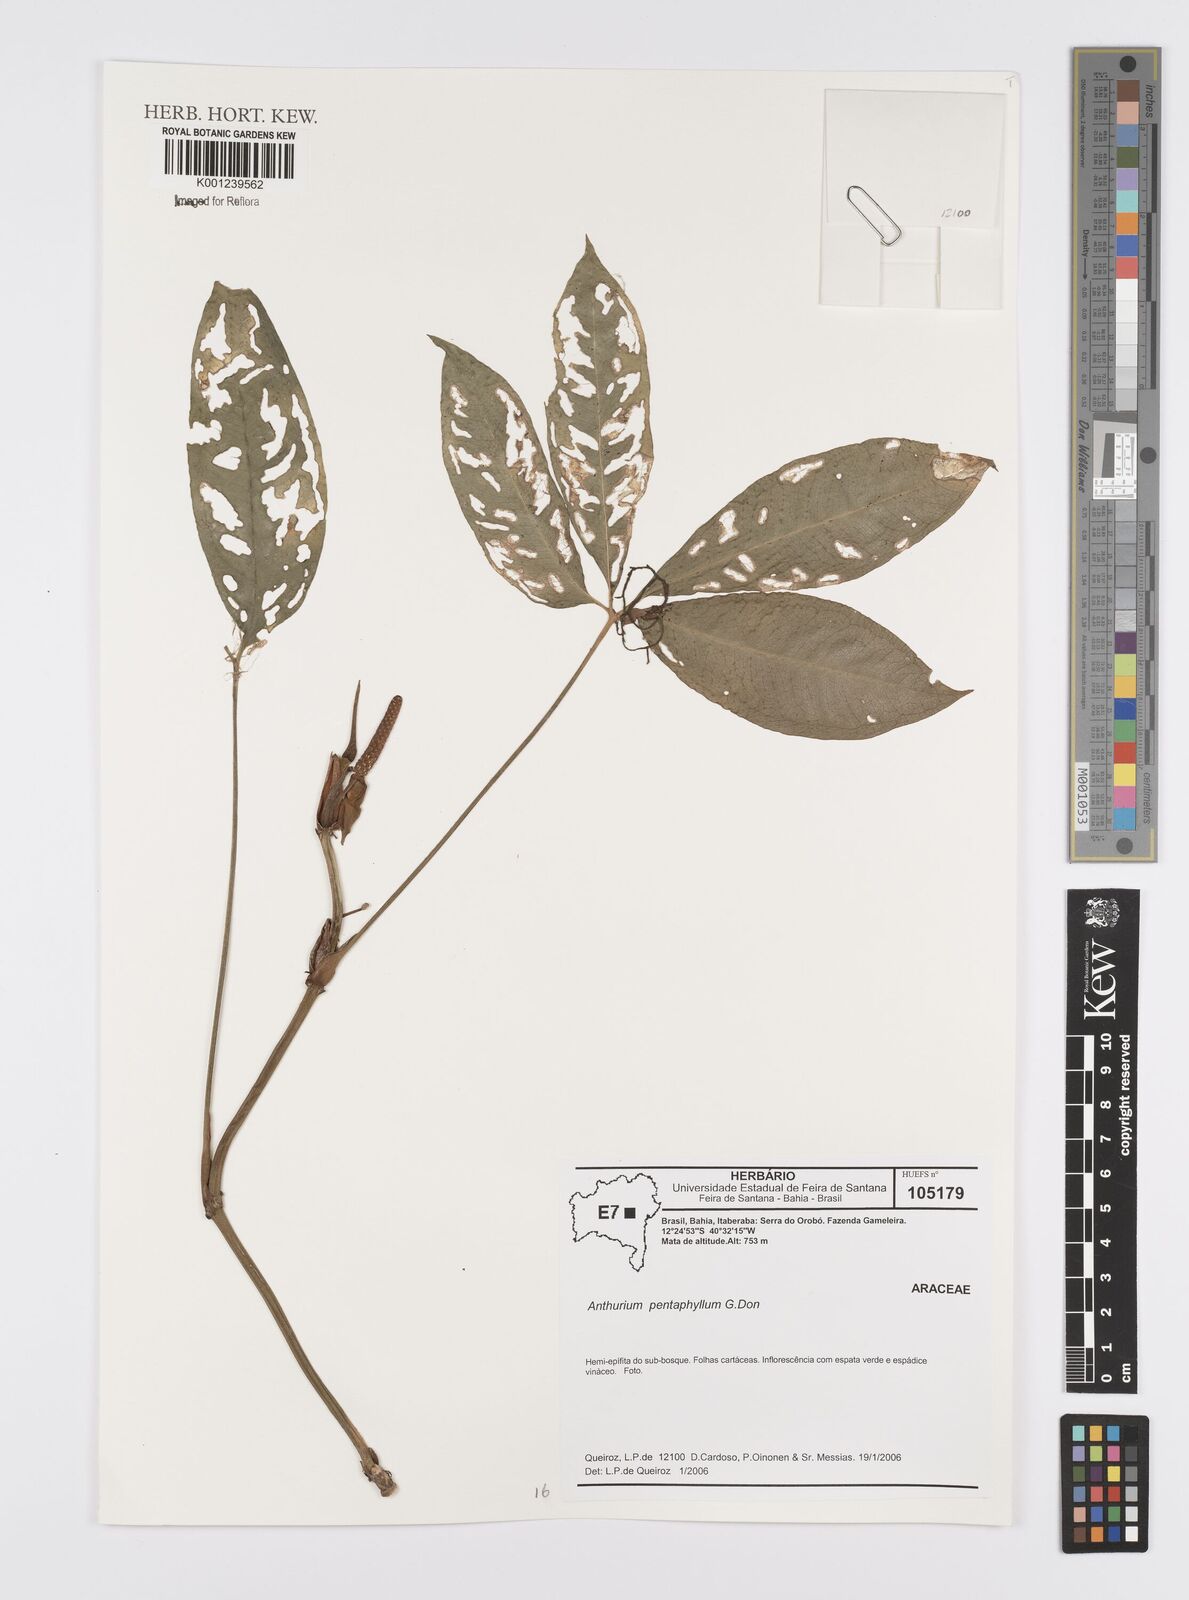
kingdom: Plantae
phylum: Tracheophyta
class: Liliopsida
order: Alismatales
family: Araceae
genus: Anthurium
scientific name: Anthurium pentaphyllum
